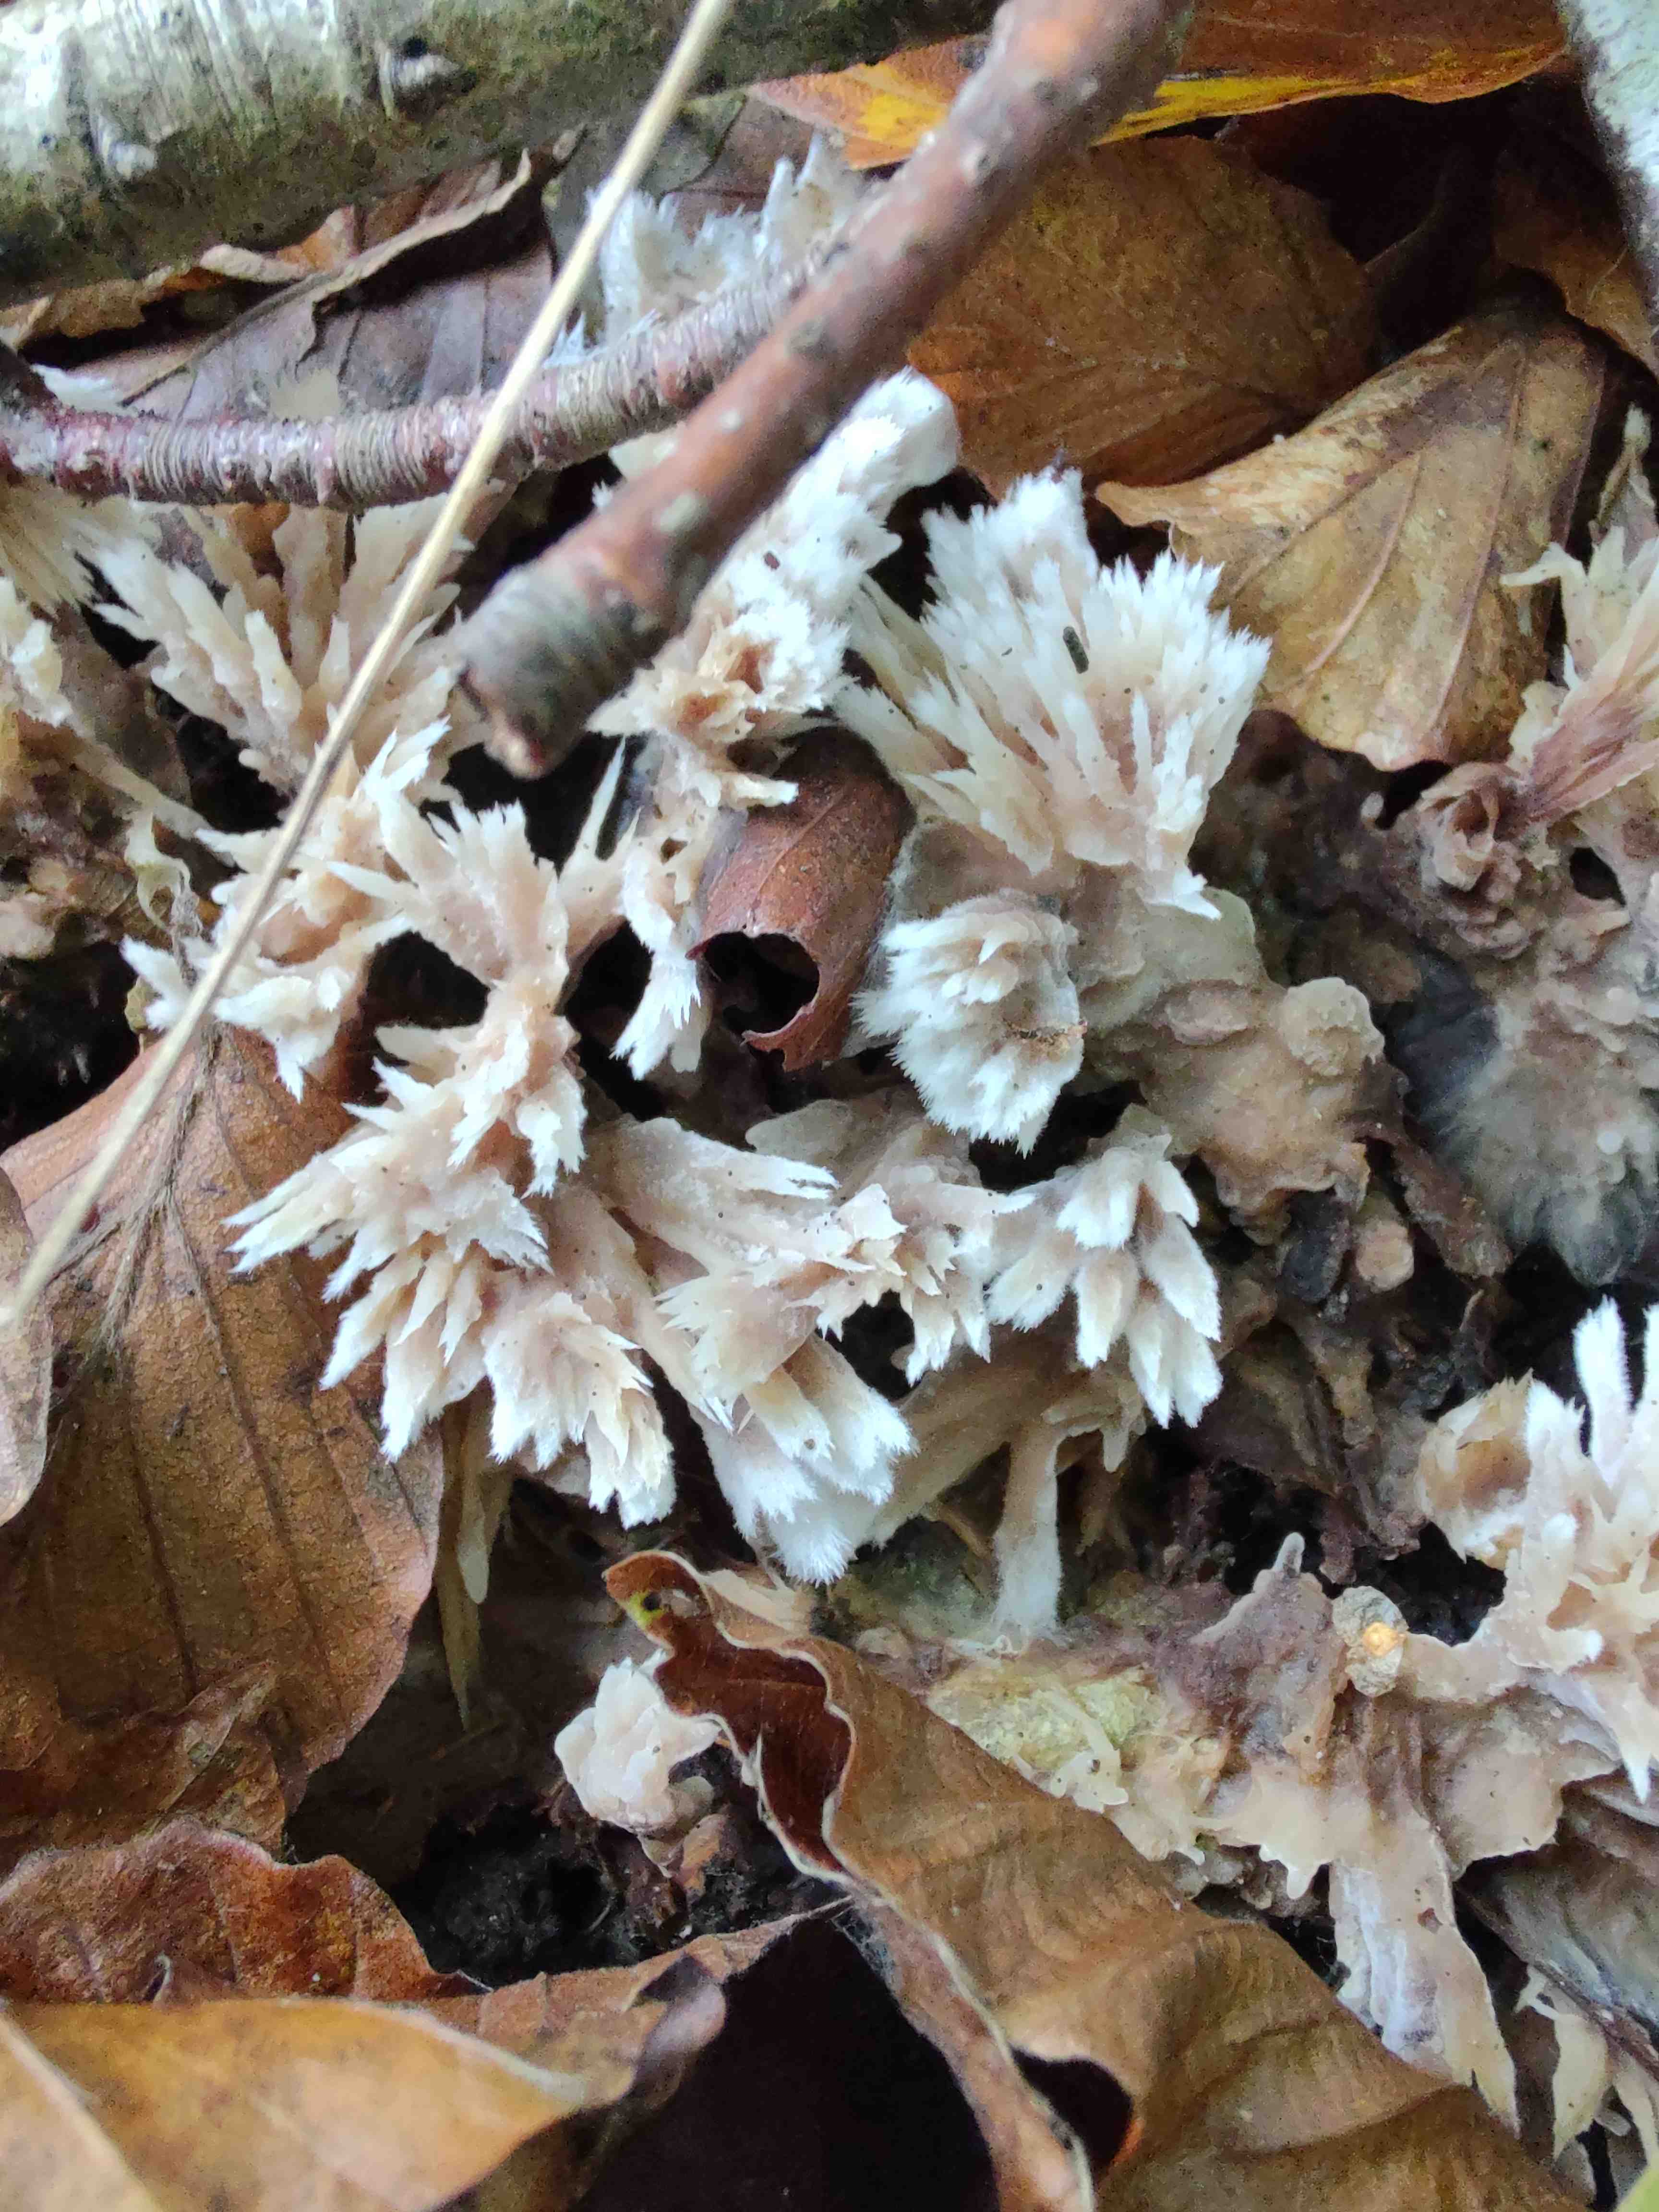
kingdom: Fungi
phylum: Basidiomycota
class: Agaricomycetes
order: Thelephorales
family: Thelephoraceae
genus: Thelephora
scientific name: Thelephora penicillata
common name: fladtrådt frynsesvamp
